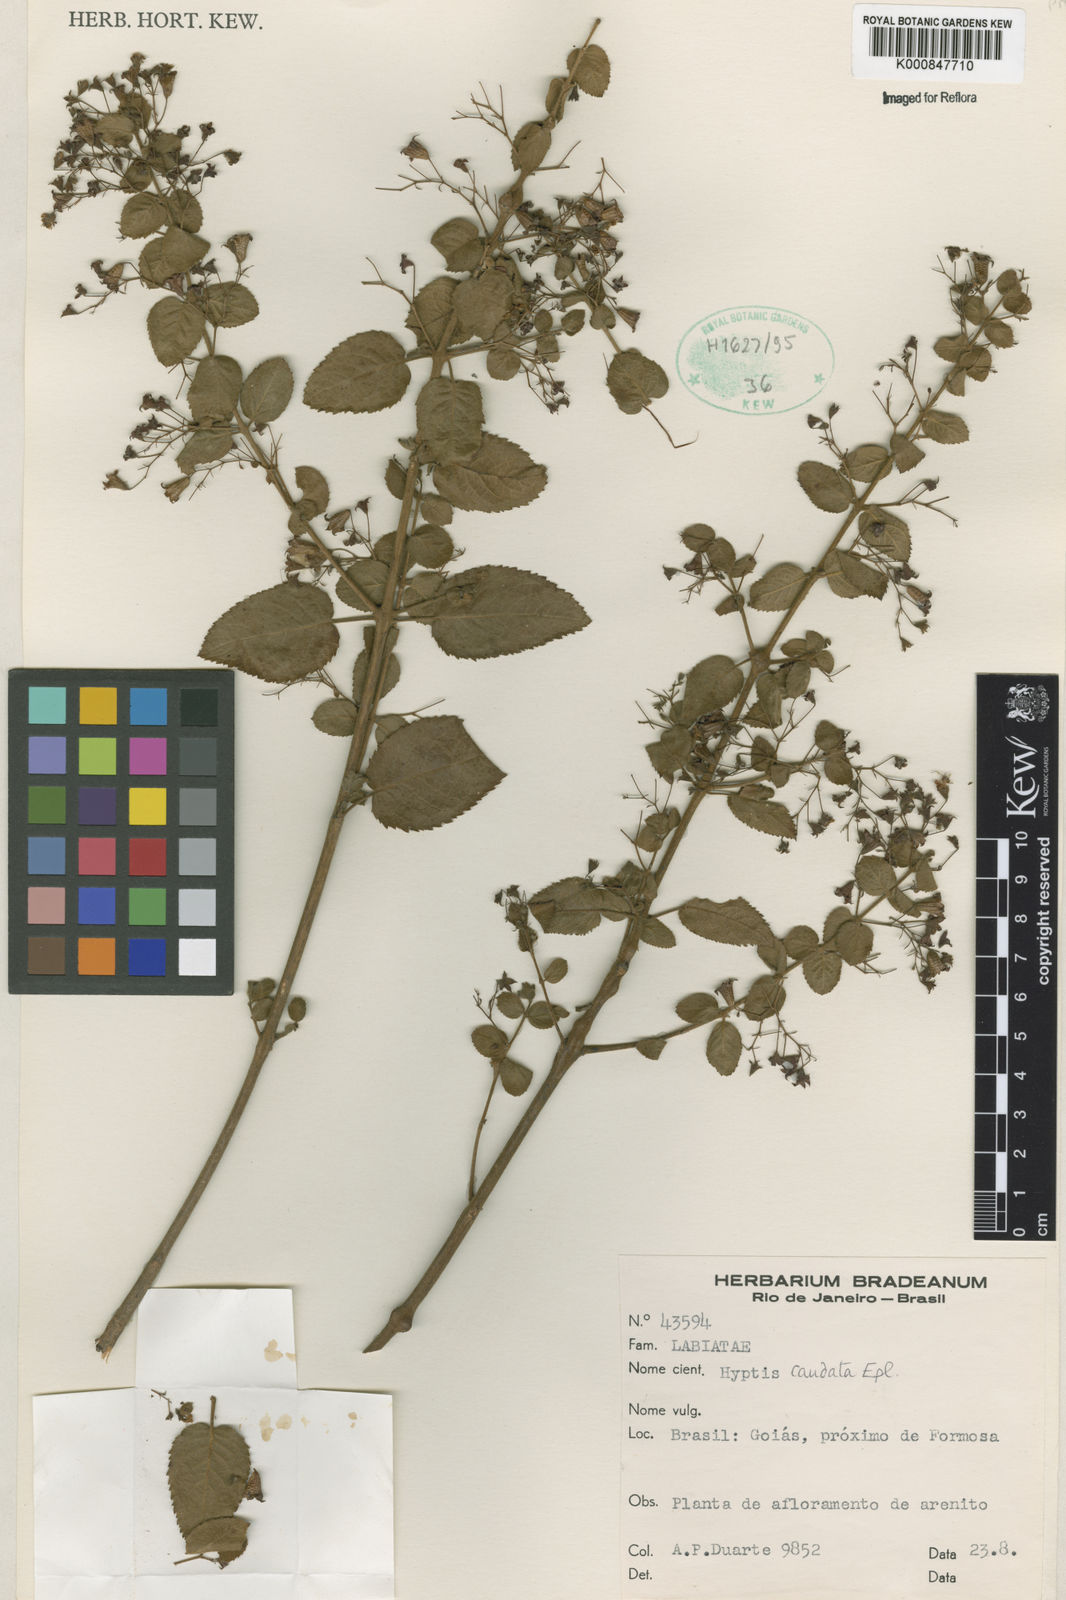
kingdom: Plantae
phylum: Tracheophyta
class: Magnoliopsida
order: Lamiales
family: Lamiaceae
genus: Hyptidendron
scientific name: Hyptidendron
